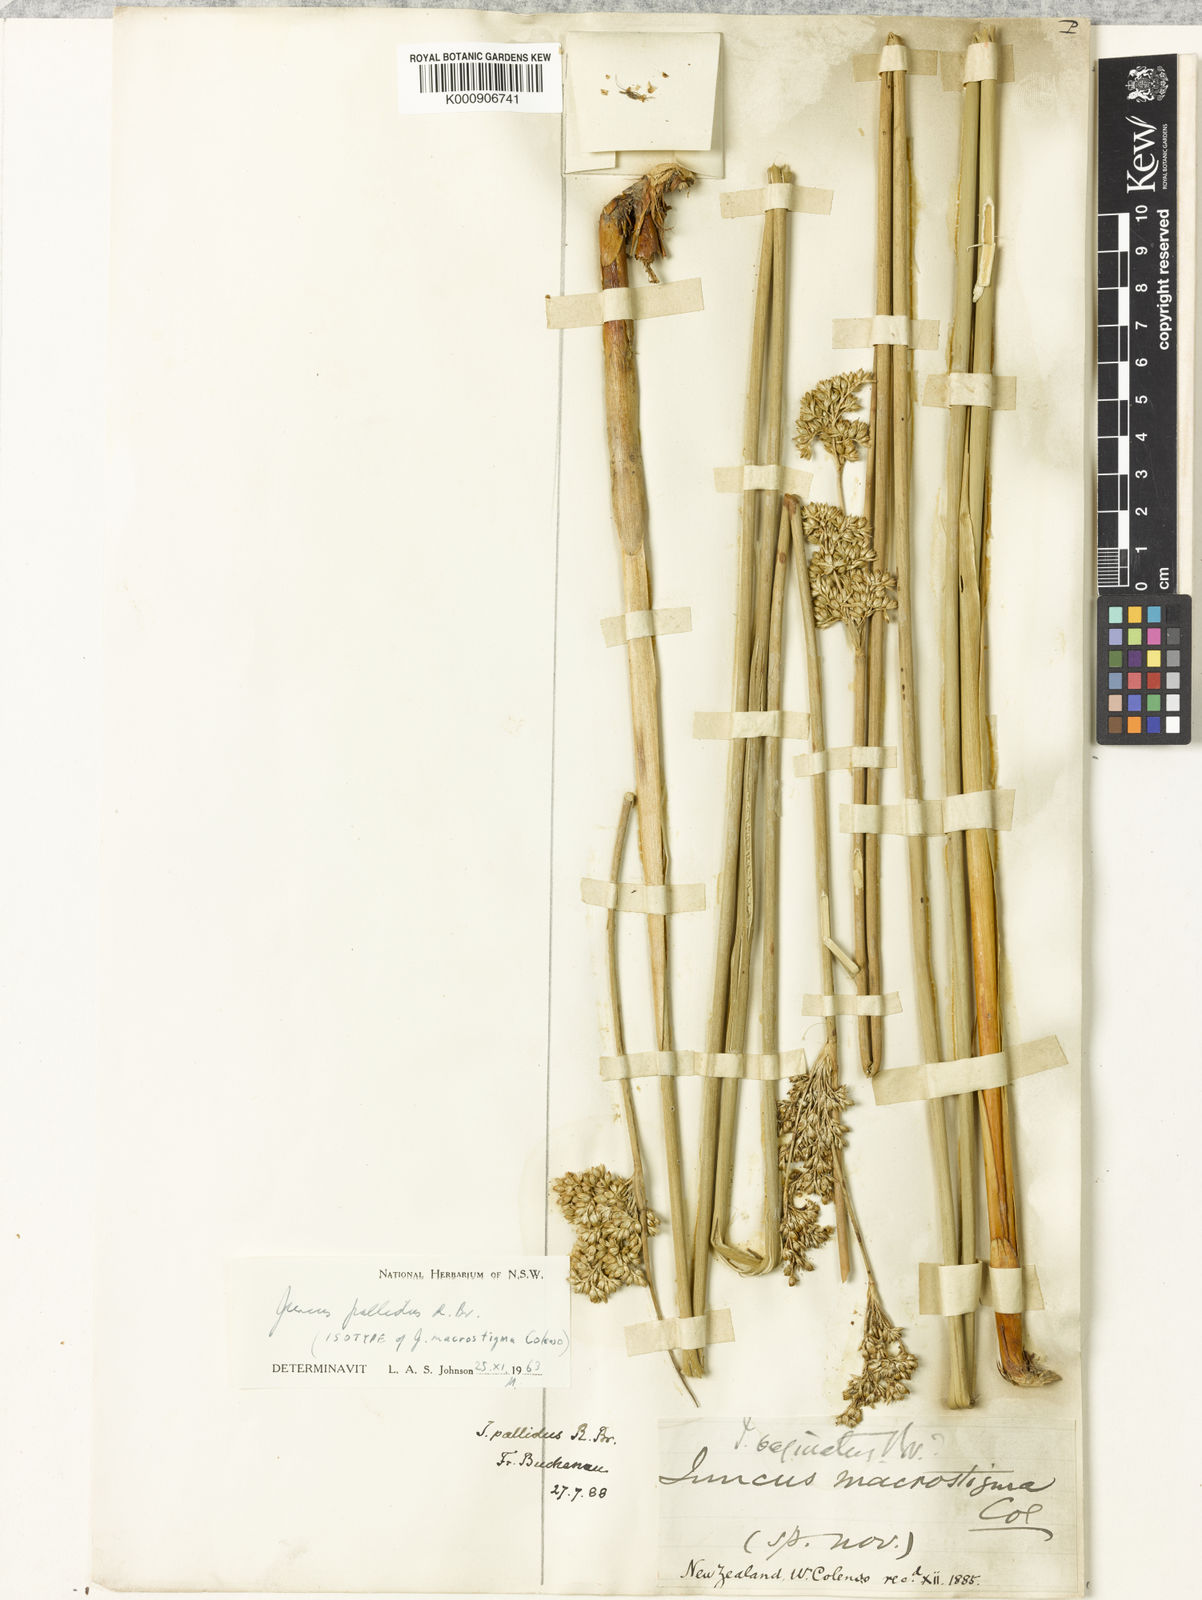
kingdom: Plantae
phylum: Tracheophyta
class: Liliopsida
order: Poales
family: Juncaceae
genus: Juncus
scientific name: Juncus pallidus
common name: Great soft-rush
